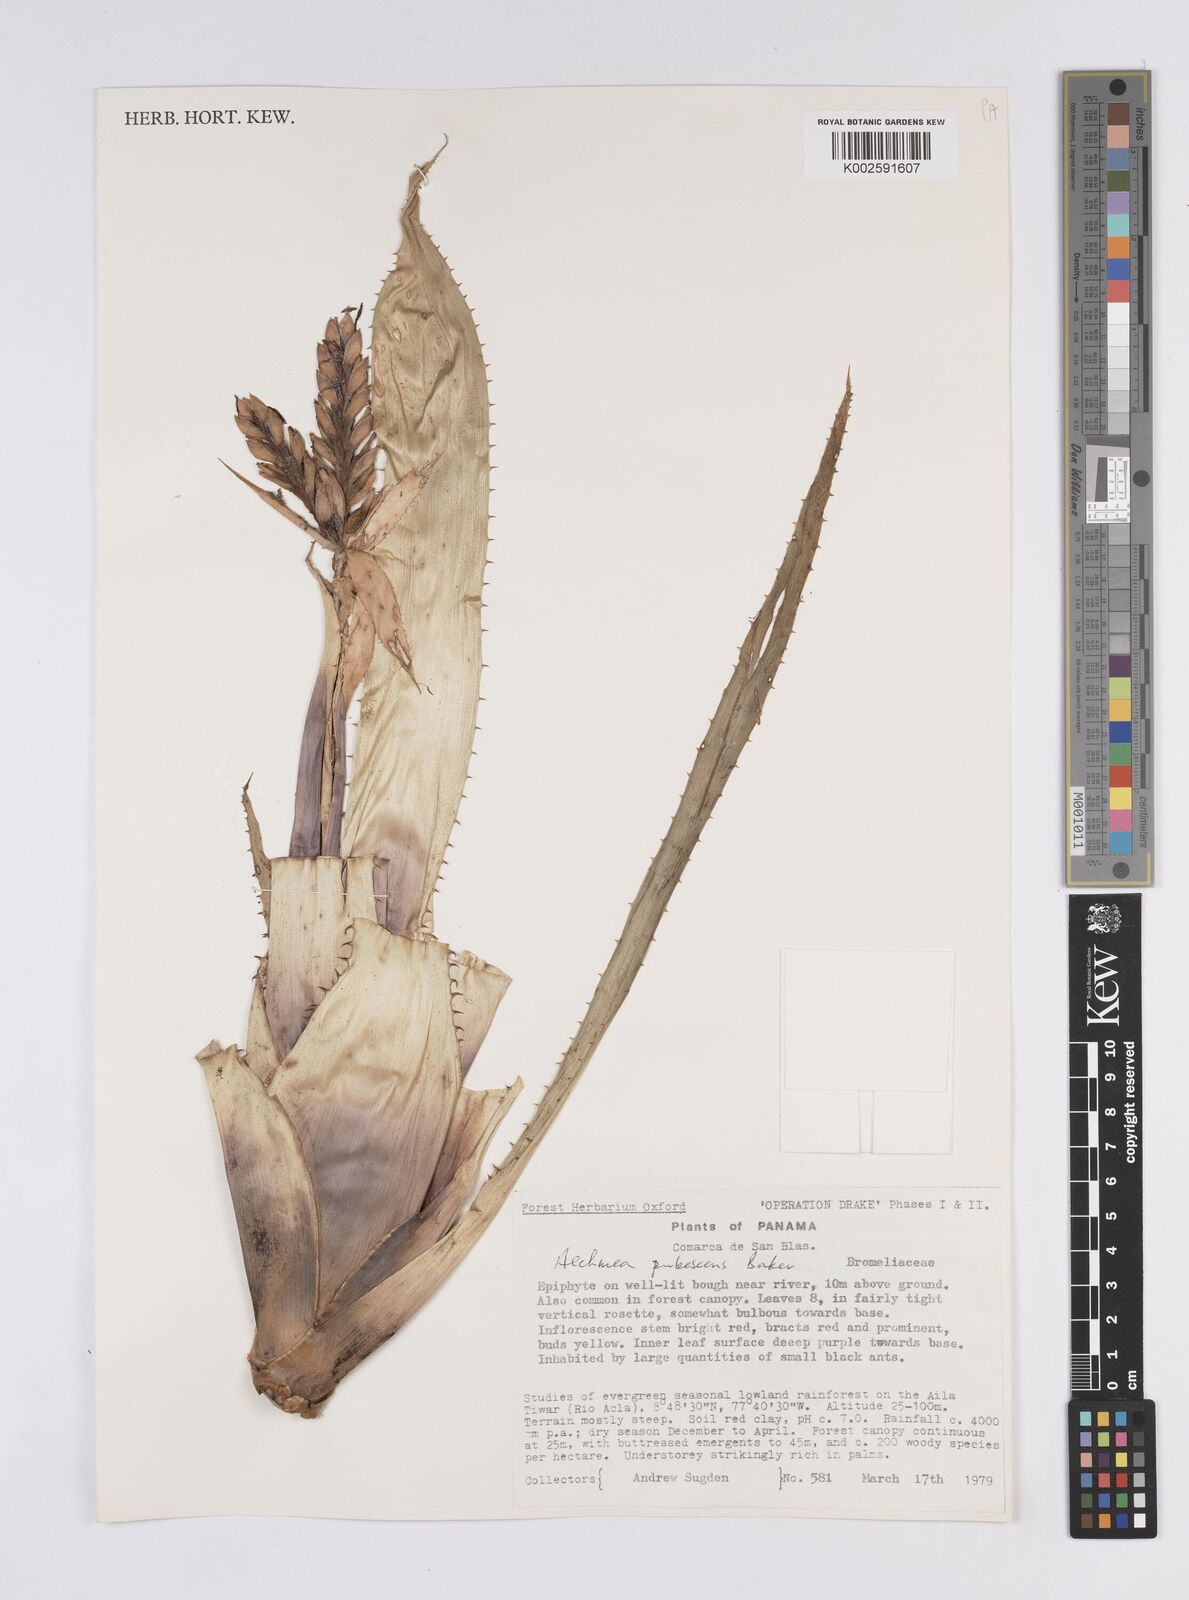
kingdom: Plantae
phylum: Tracheophyta
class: Liliopsida
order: Poales
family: Bromeliaceae
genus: Aechmea
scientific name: Aechmea pubescens
